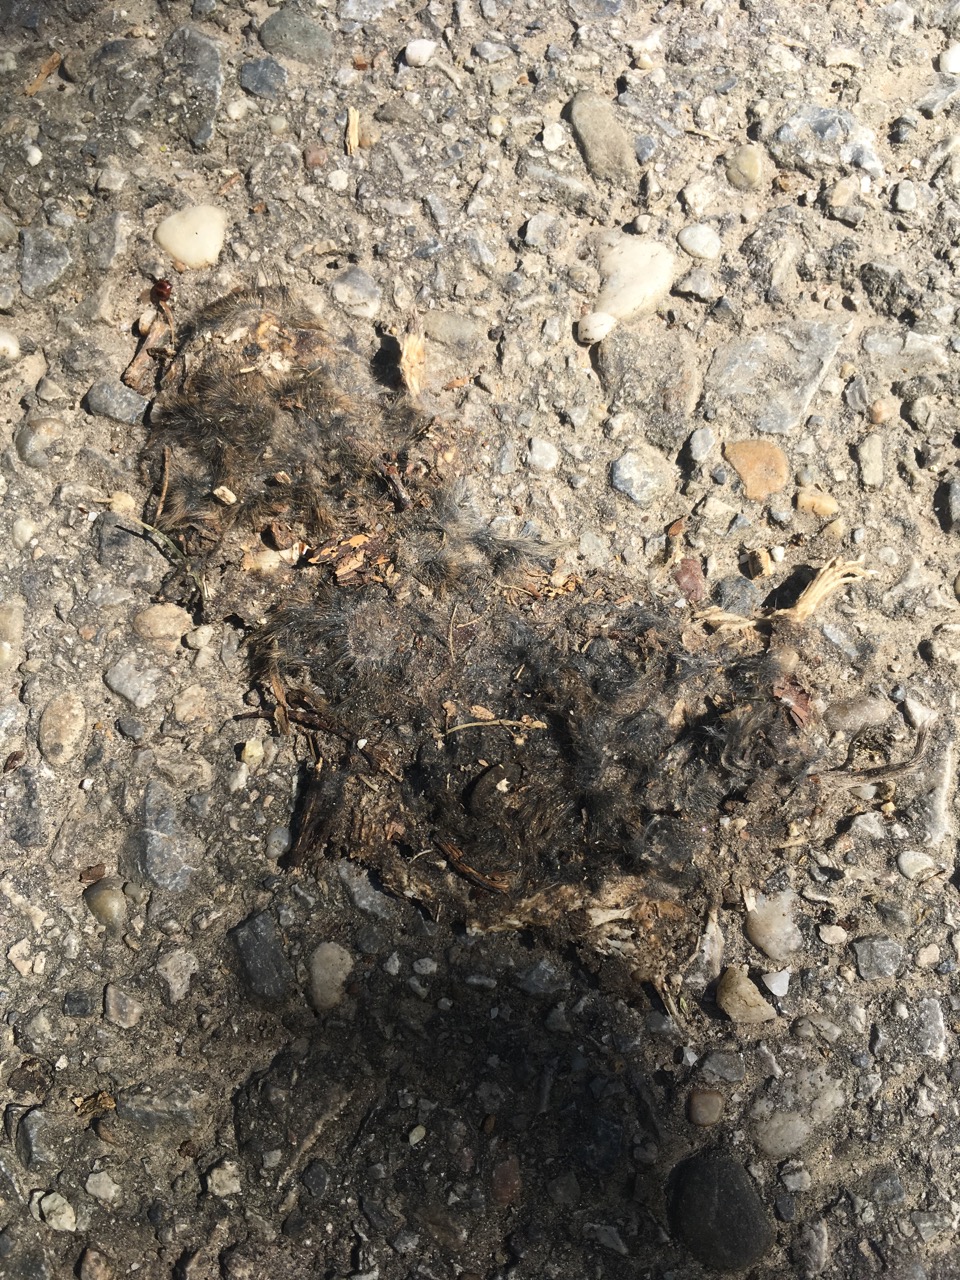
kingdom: Animalia
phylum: Chordata
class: Mammalia
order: Rodentia
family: Cricetidae
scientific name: Cricetidae
